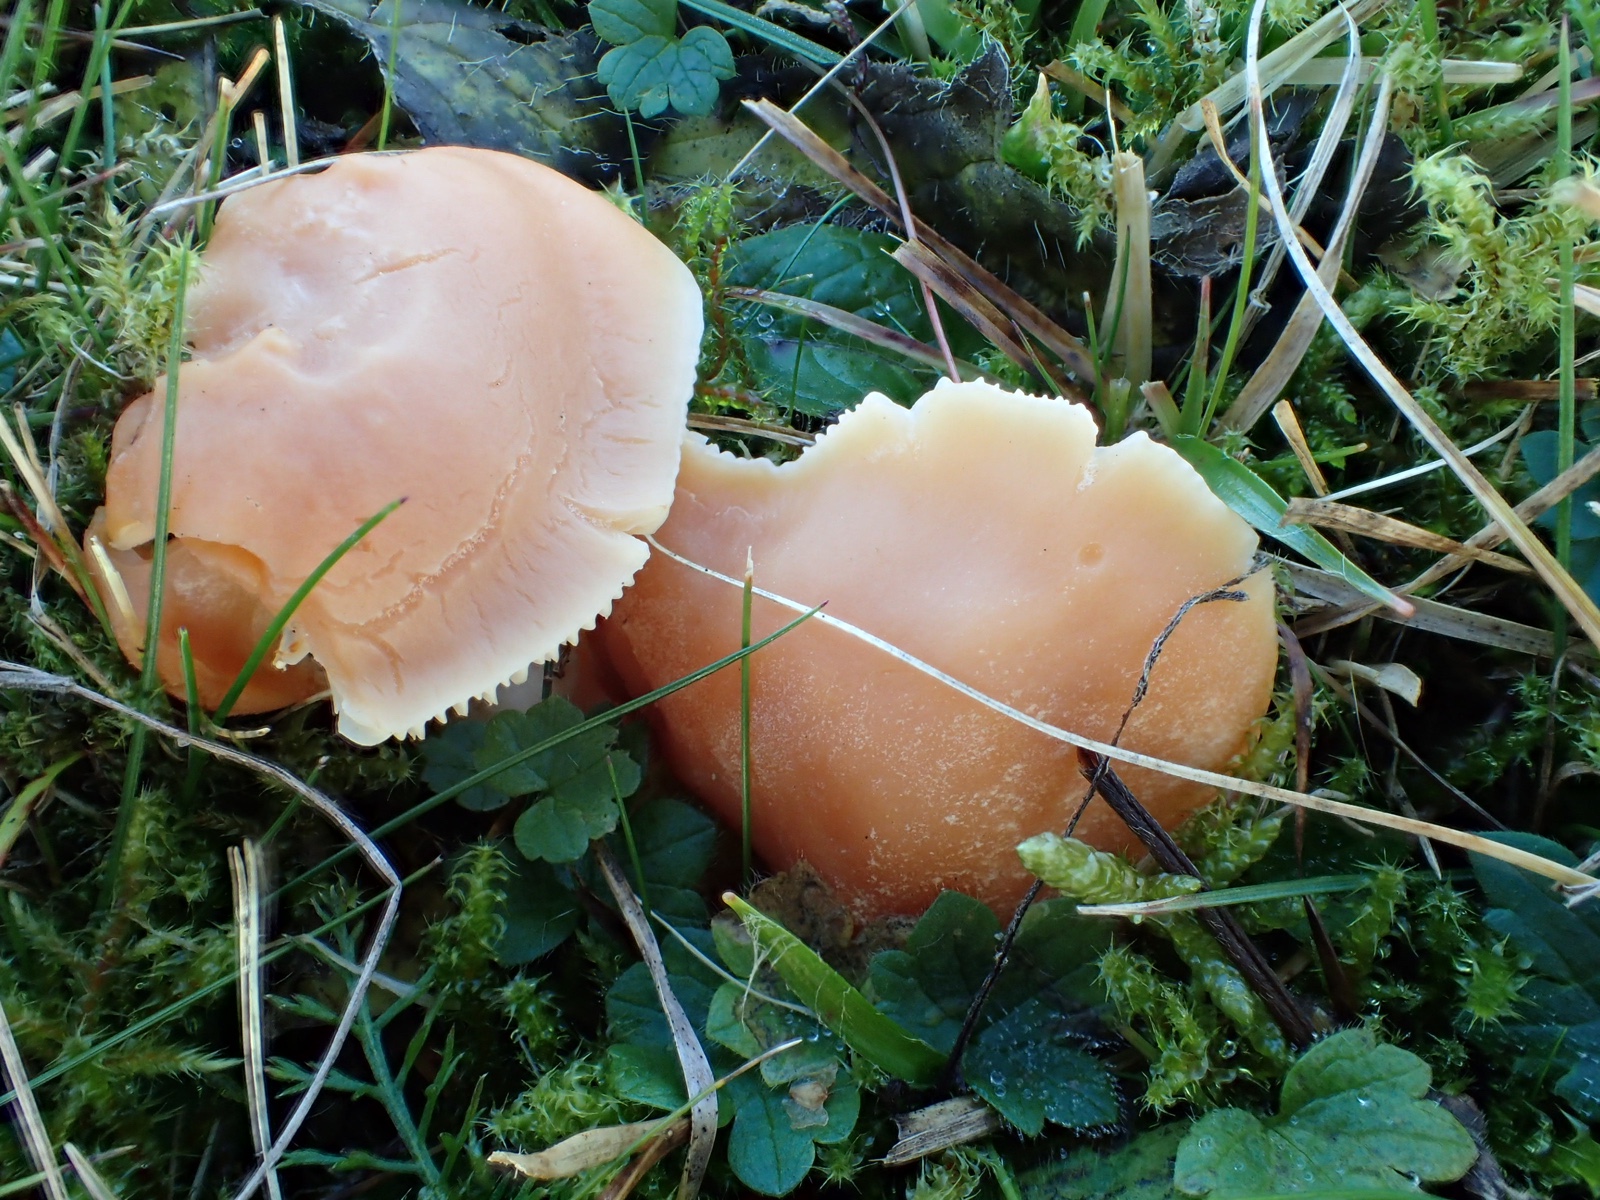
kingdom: Fungi
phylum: Basidiomycota
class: Agaricomycetes
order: Agaricales
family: Hygrophoraceae
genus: Cuphophyllus
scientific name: Cuphophyllus pratensis
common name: eng-vokshat
